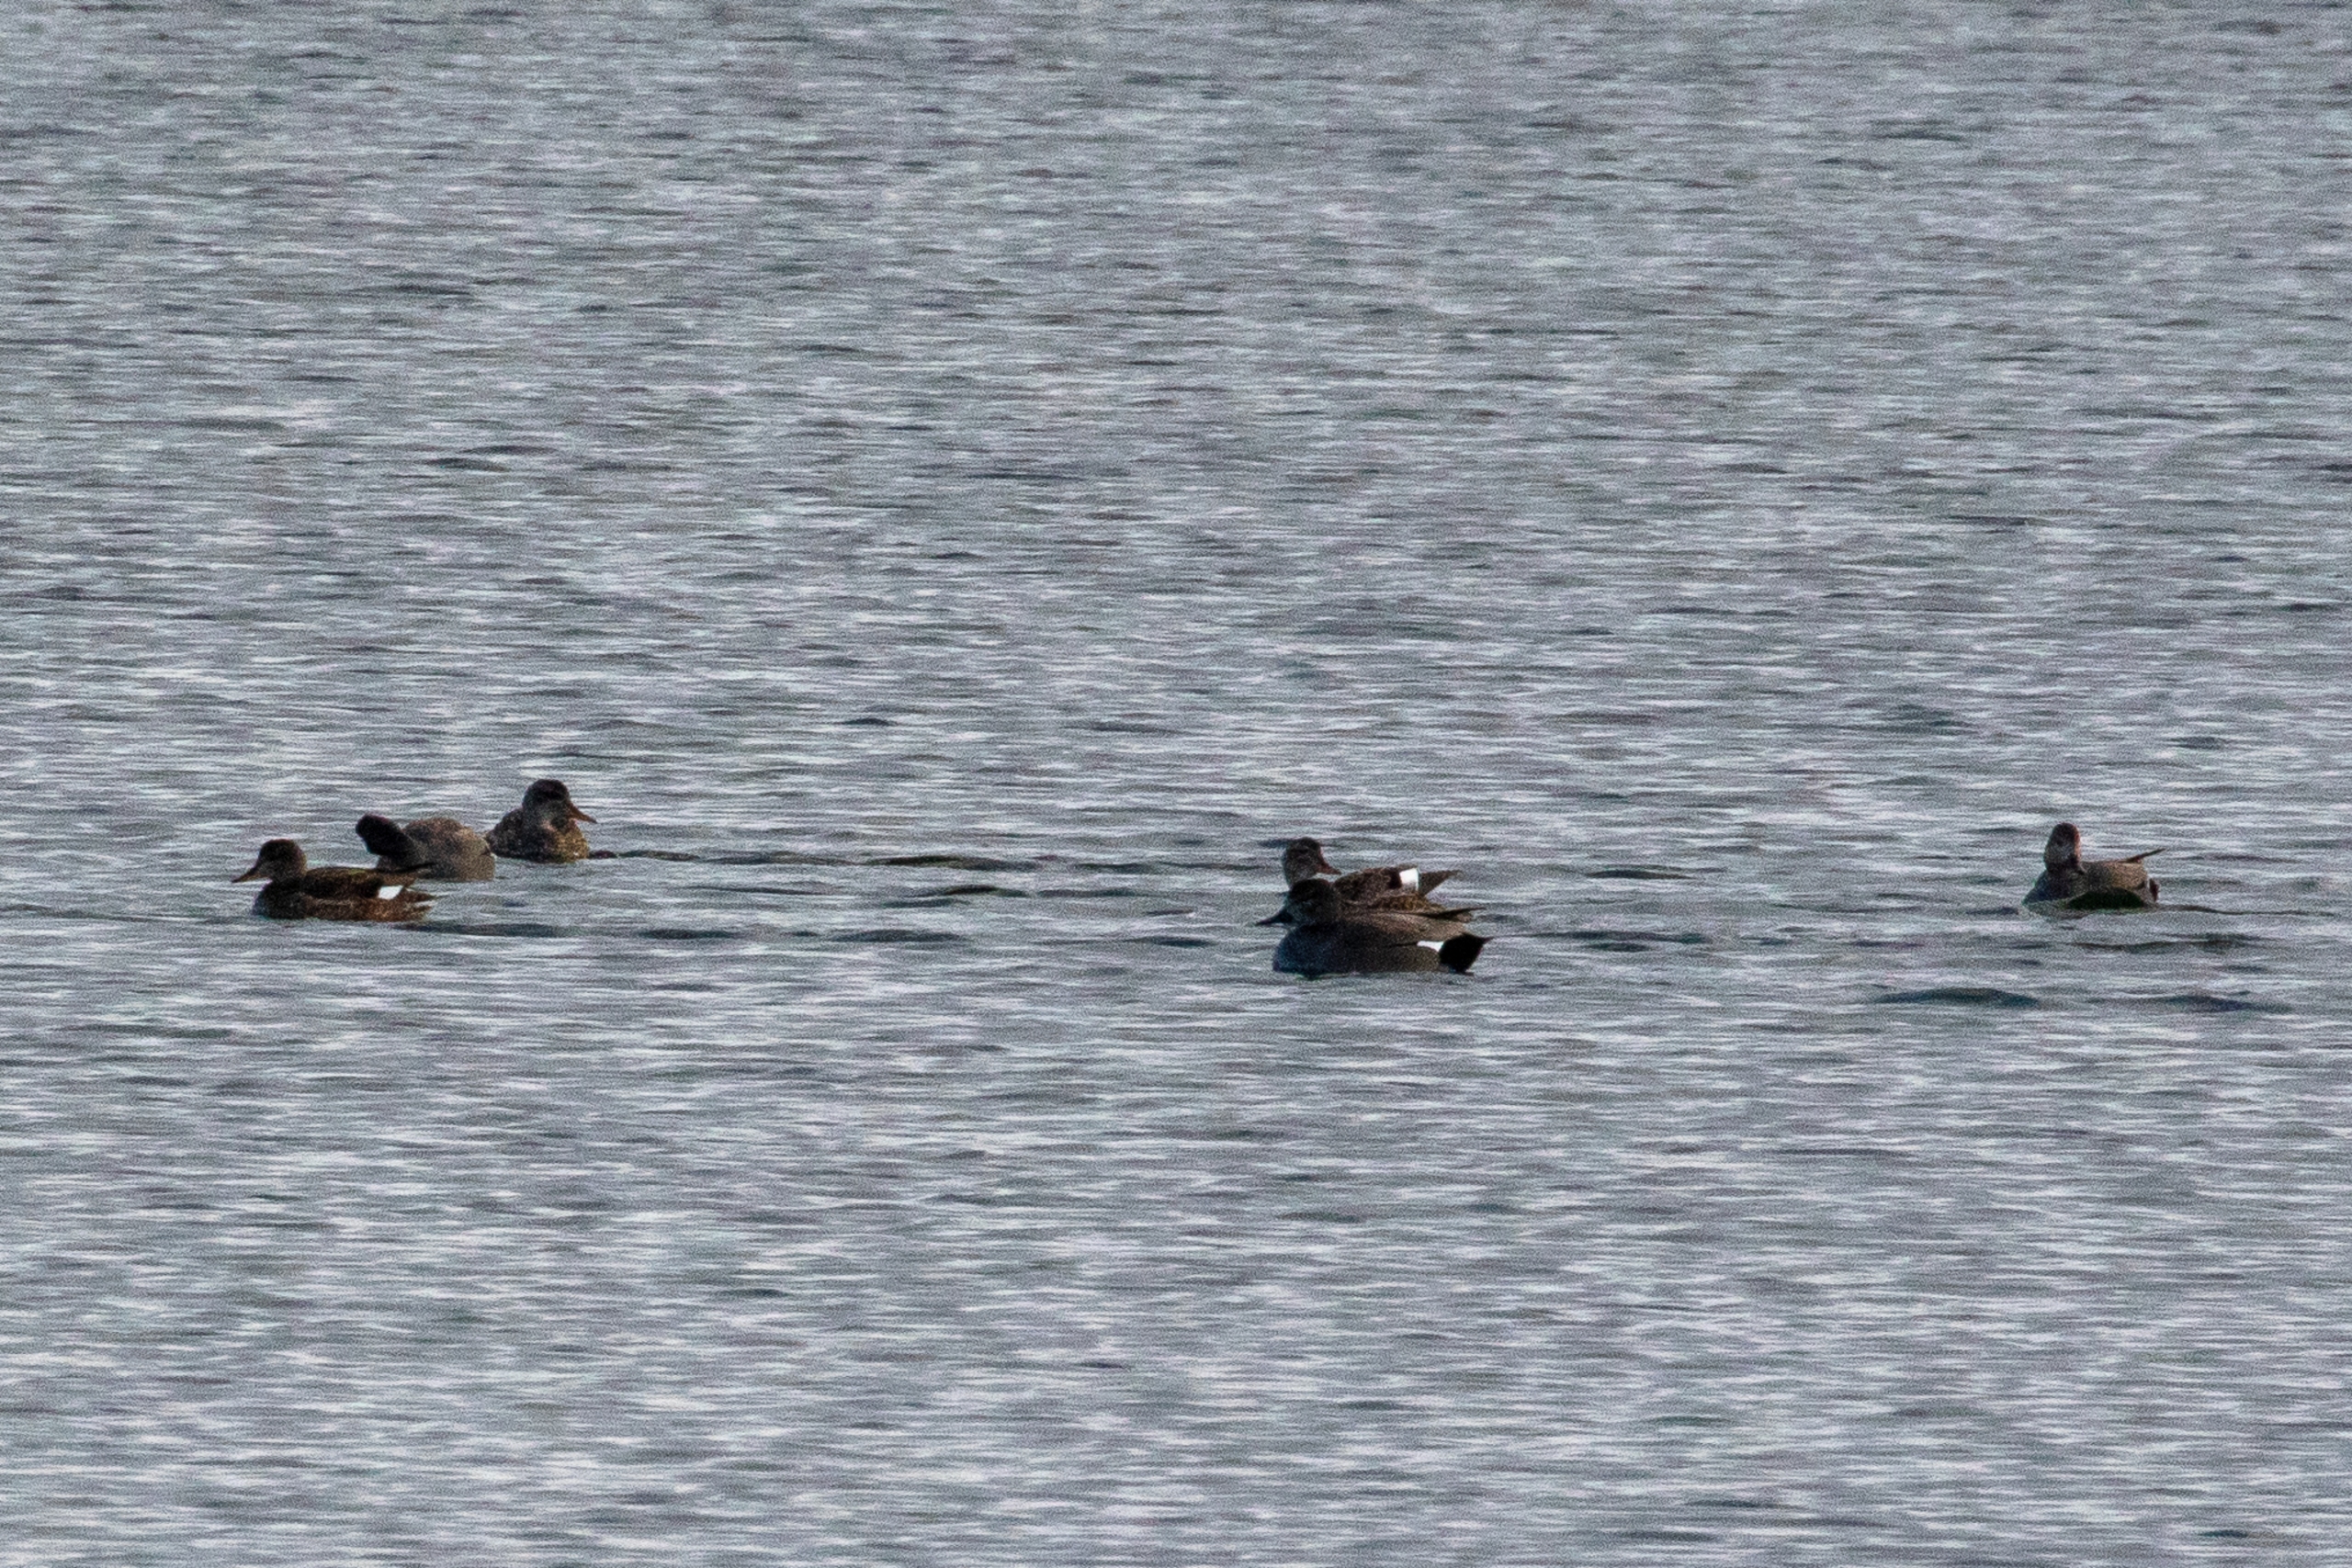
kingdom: Animalia
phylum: Chordata
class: Aves
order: Anseriformes
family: Anatidae
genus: Mareca
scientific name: Mareca strepera
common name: Knarand
